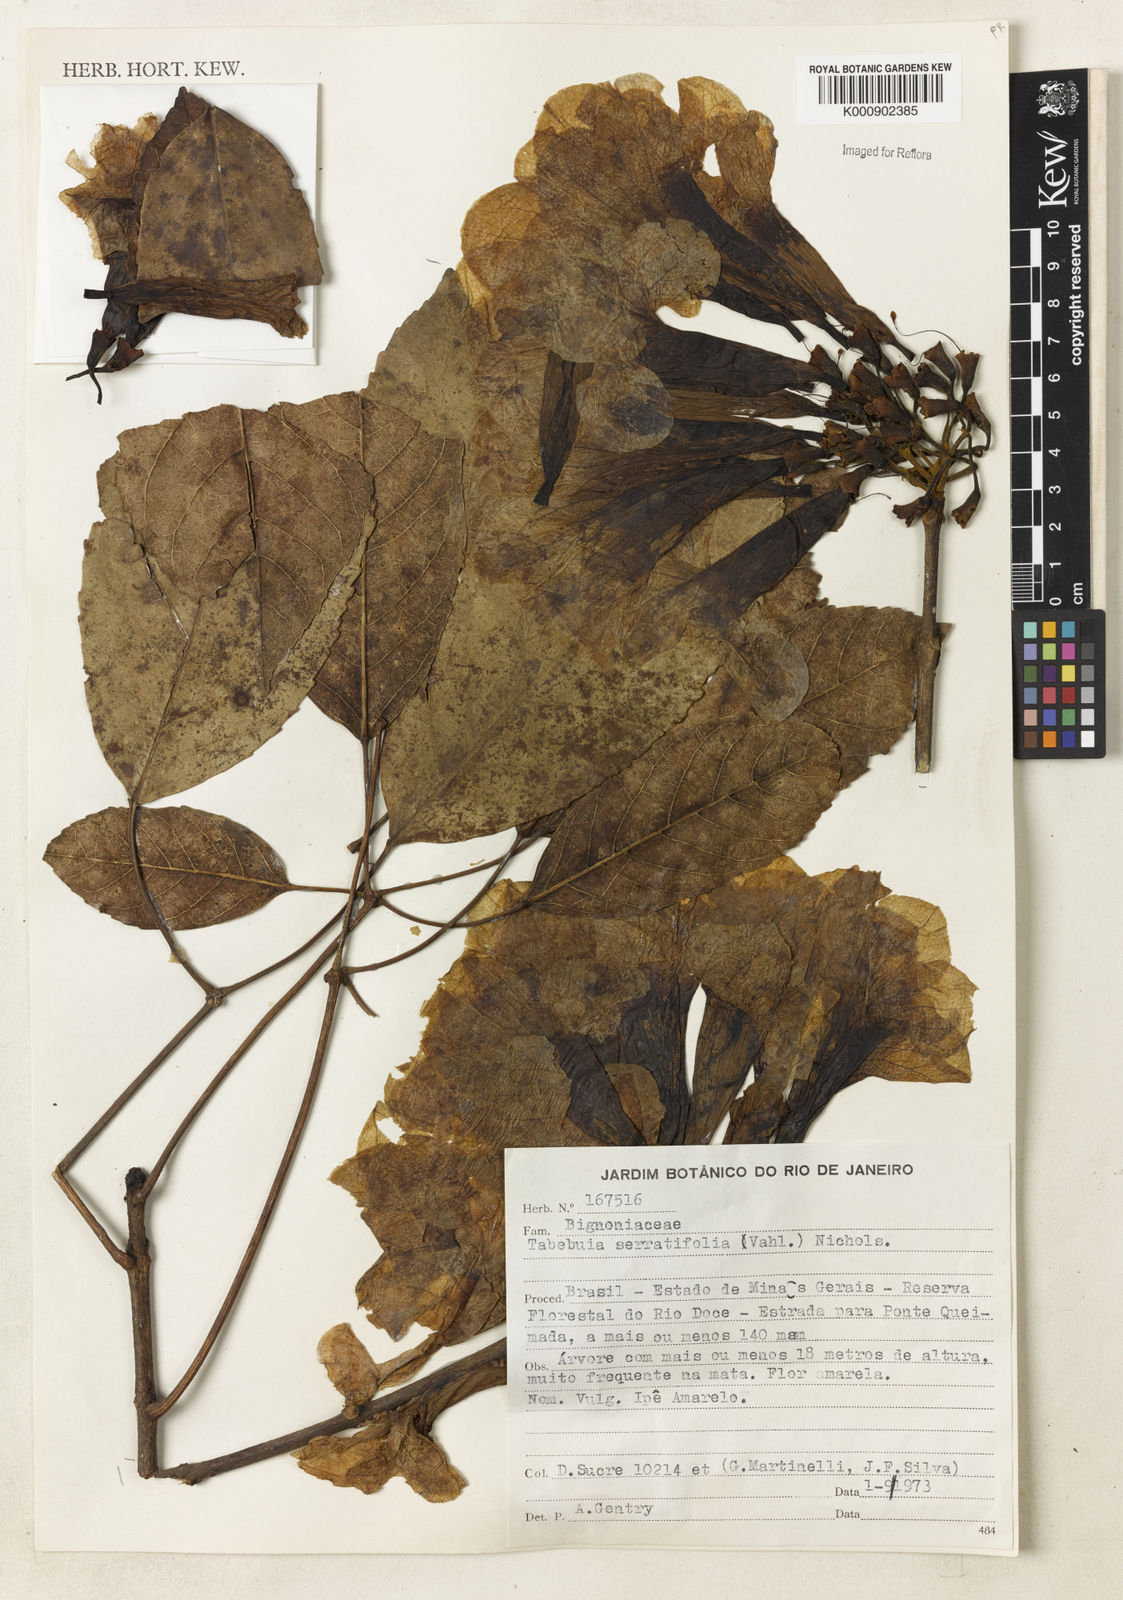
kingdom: Plantae
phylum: Tracheophyta
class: Magnoliopsida
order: Lamiales
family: Bignoniaceae
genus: Handroanthus
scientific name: Handroanthus serratifolius
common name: Yellow ipe
